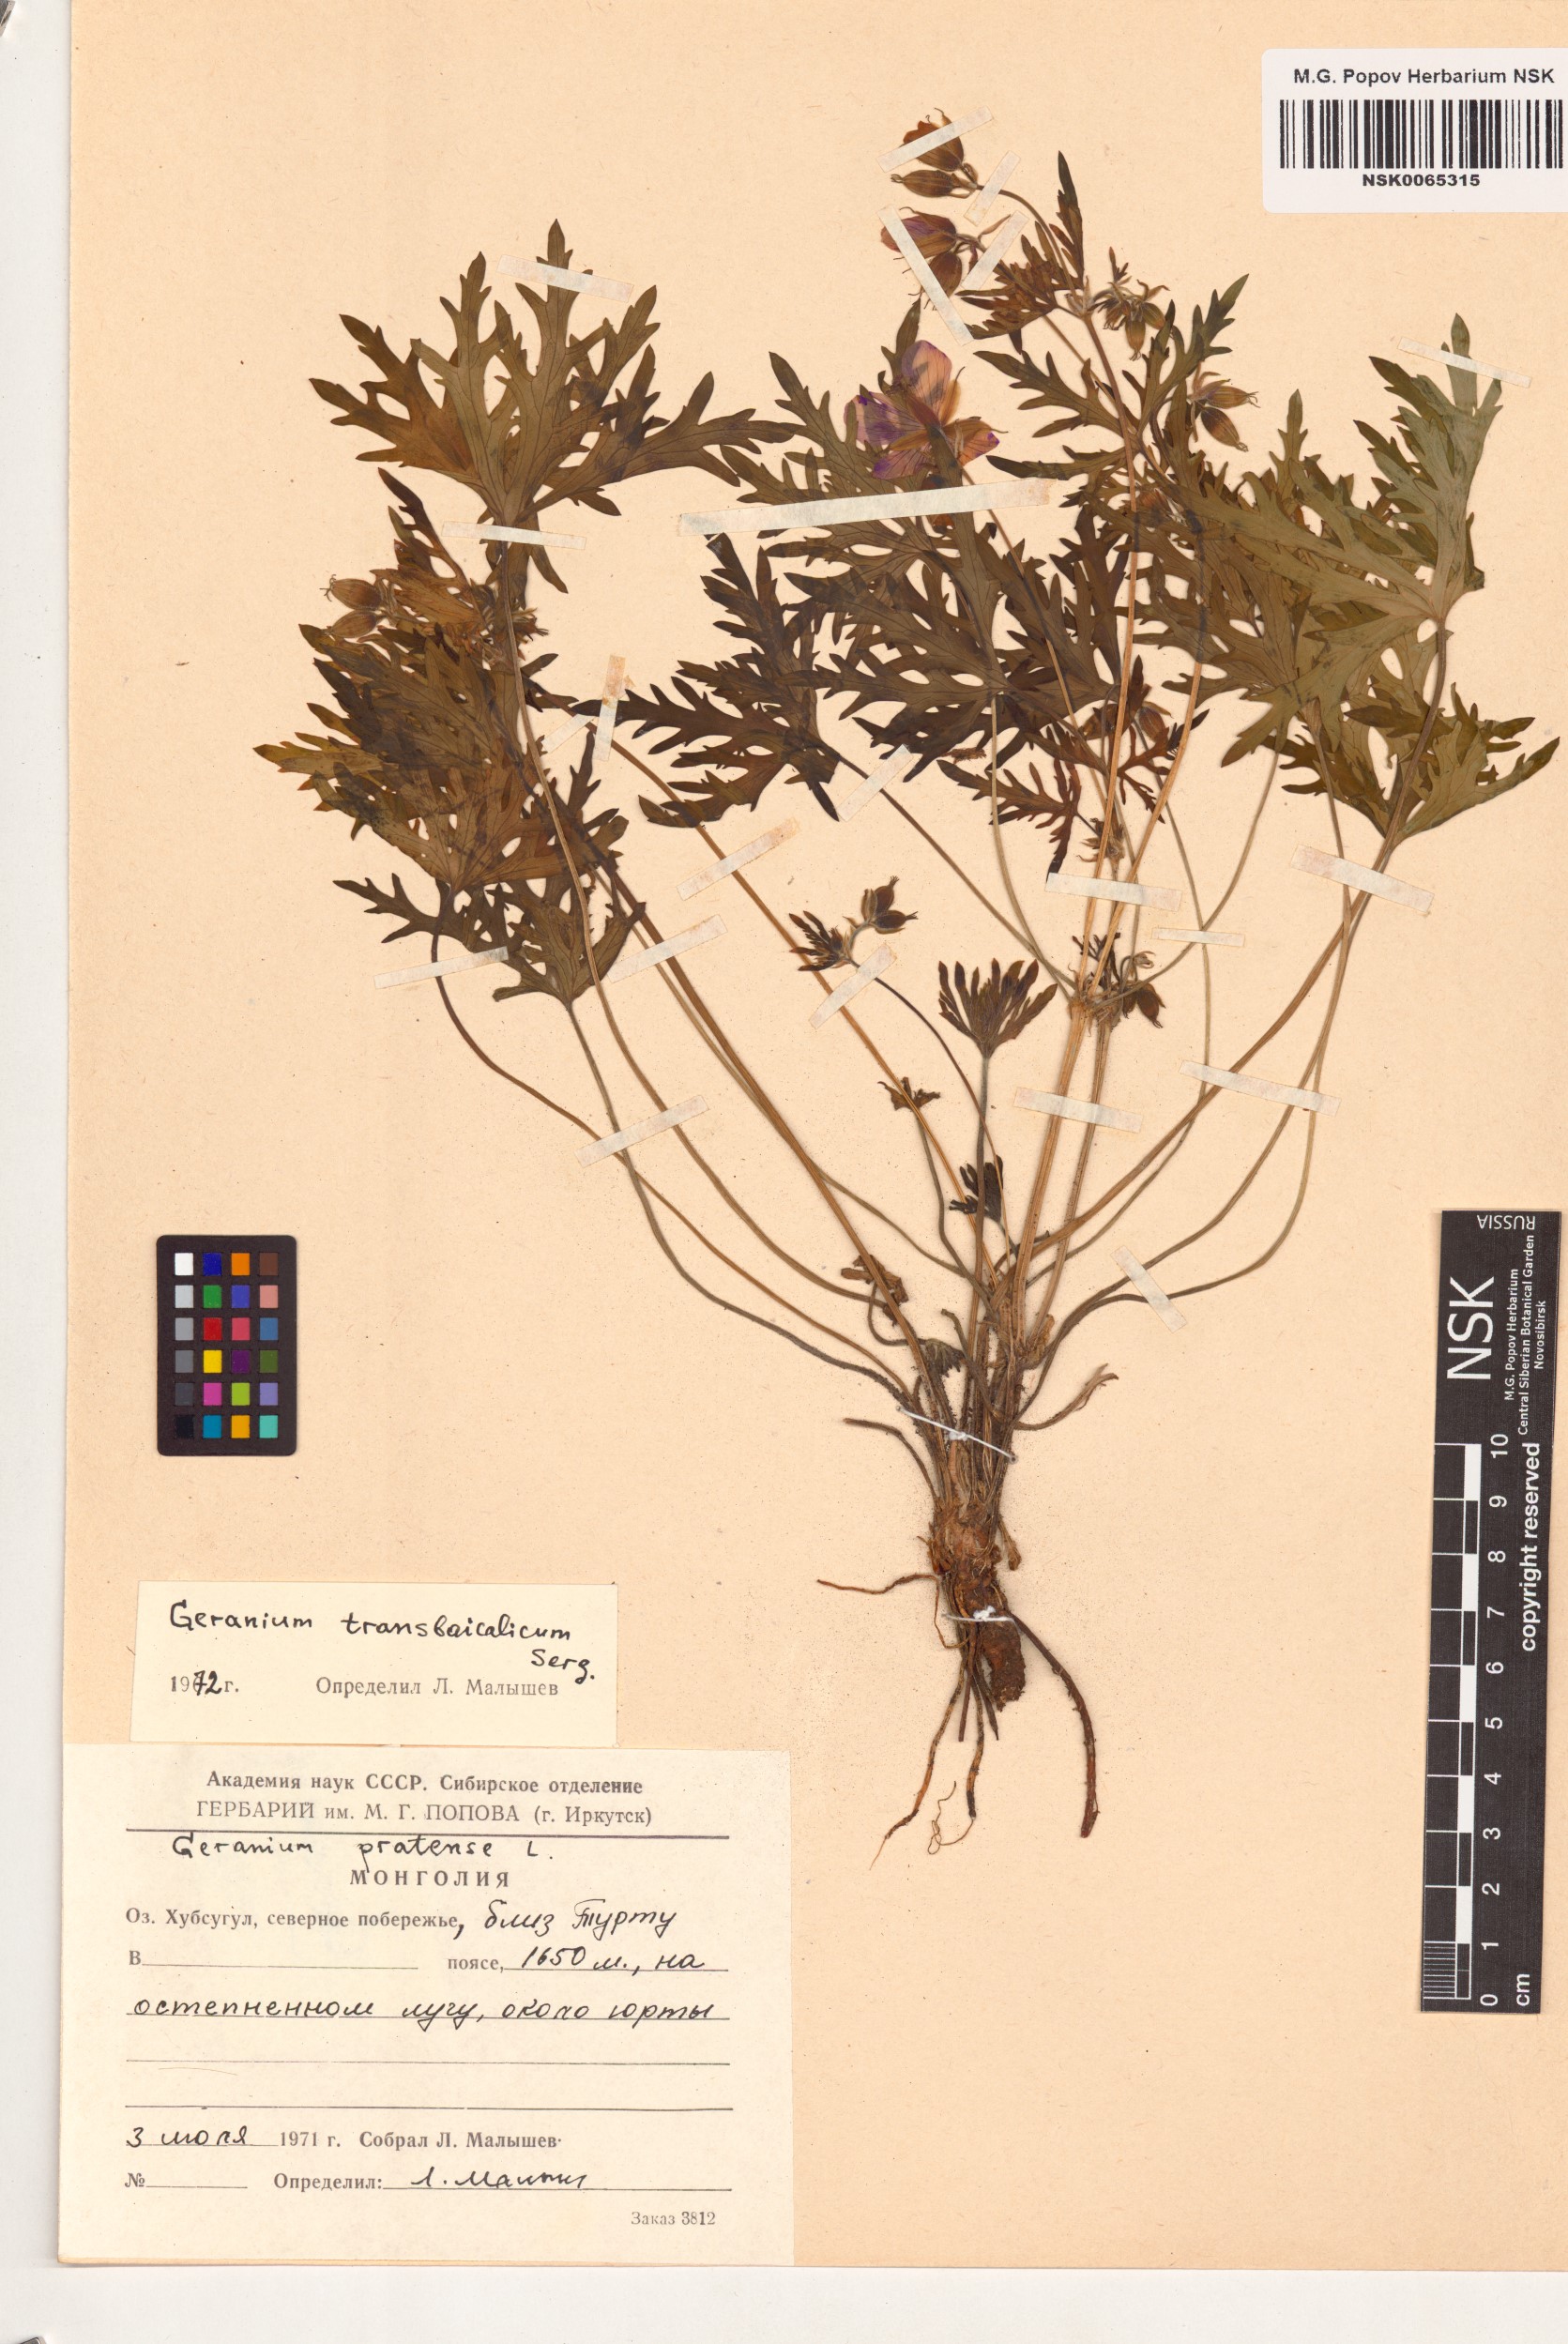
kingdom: Plantae
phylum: Tracheophyta
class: Magnoliopsida
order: Geraniales
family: Geraniaceae
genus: Geranium
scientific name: Geranium pratense
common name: Meadow crane's-bill
